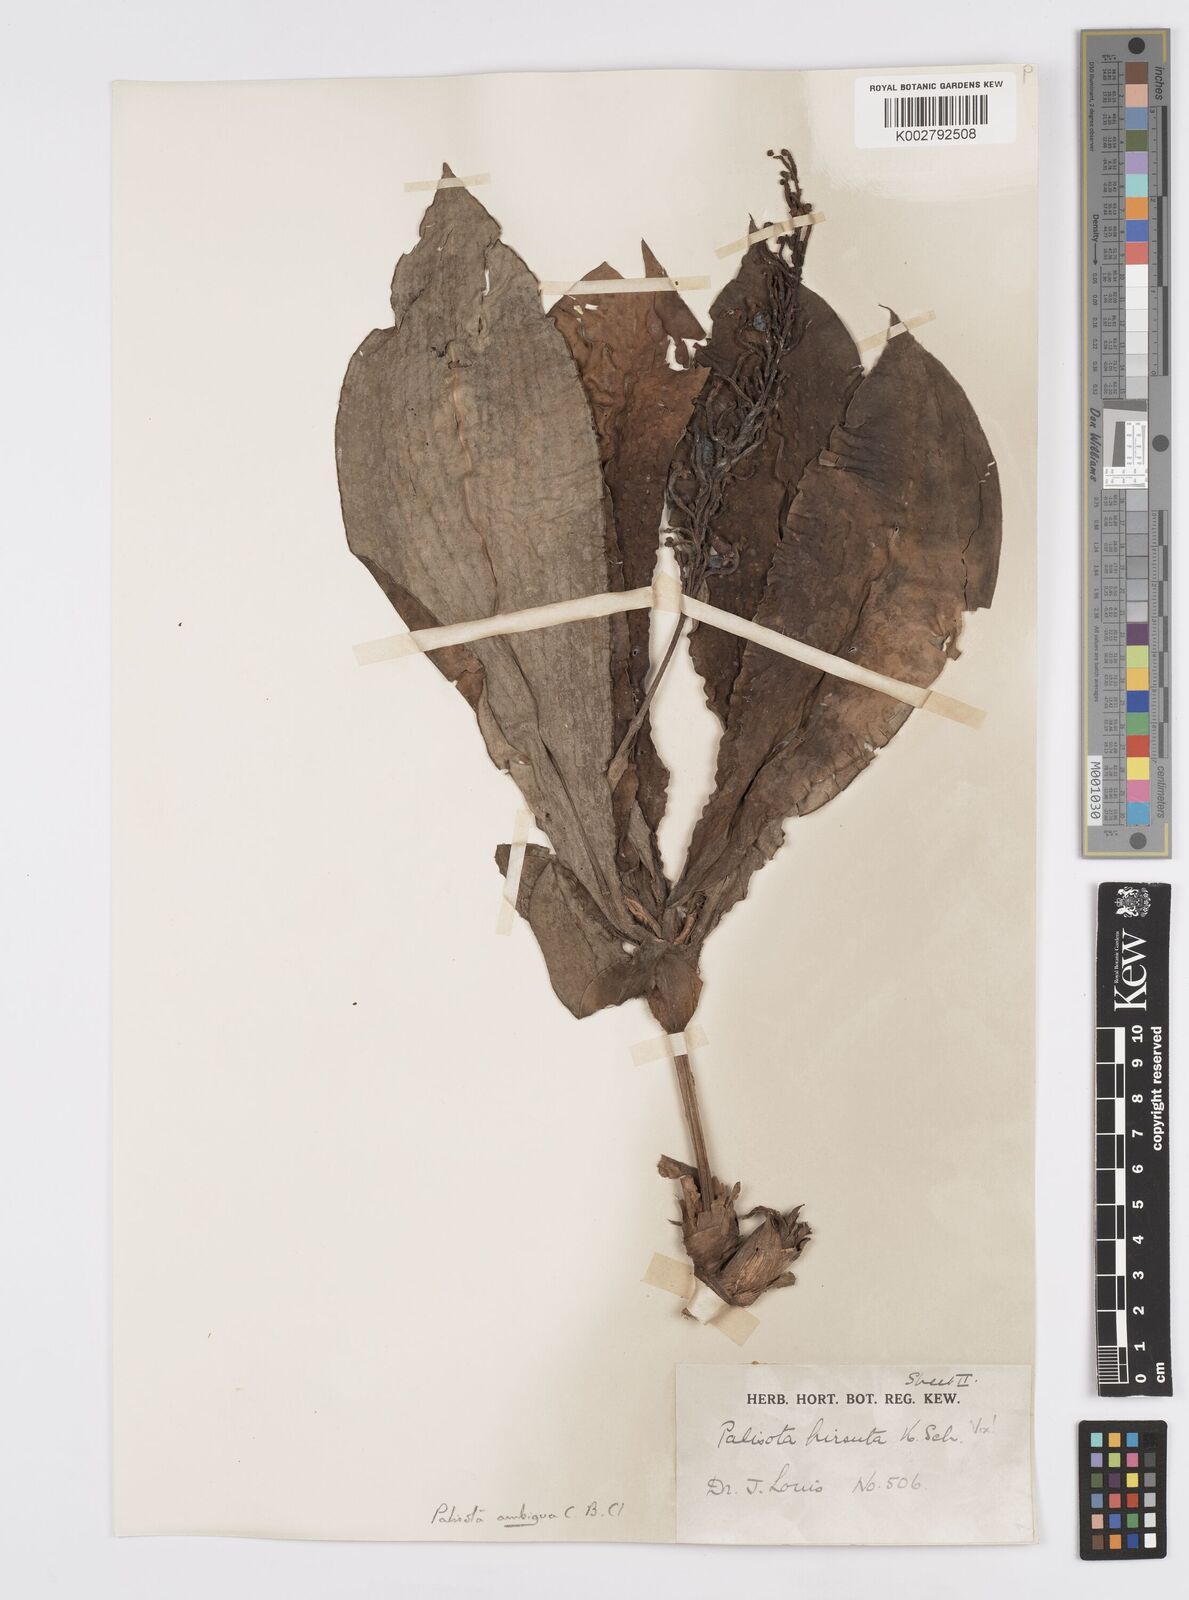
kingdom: Plantae
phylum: Tracheophyta
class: Liliopsida
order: Commelinales
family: Commelinaceae
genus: Palisota
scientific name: Palisota ambigua
